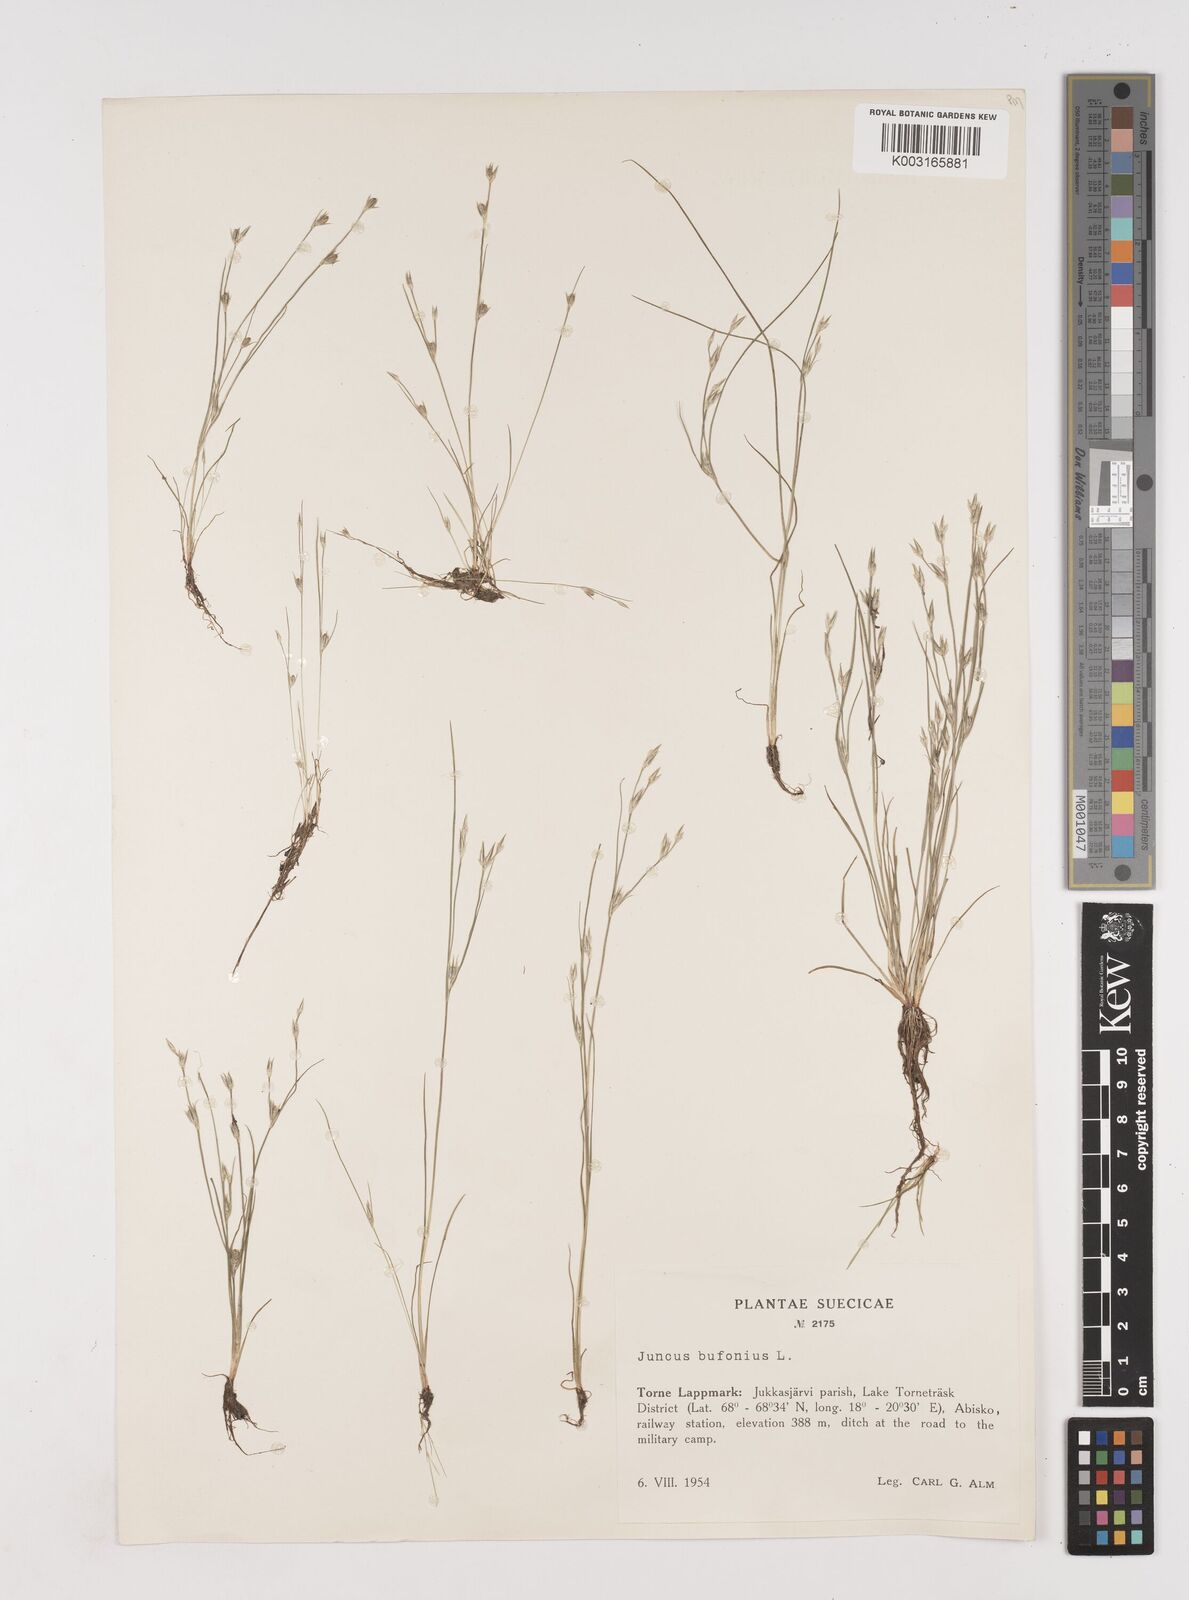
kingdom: Plantae
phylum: Tracheophyta
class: Liliopsida
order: Poales
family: Juncaceae
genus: Juncus
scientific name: Juncus bufonius
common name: Toad rush
